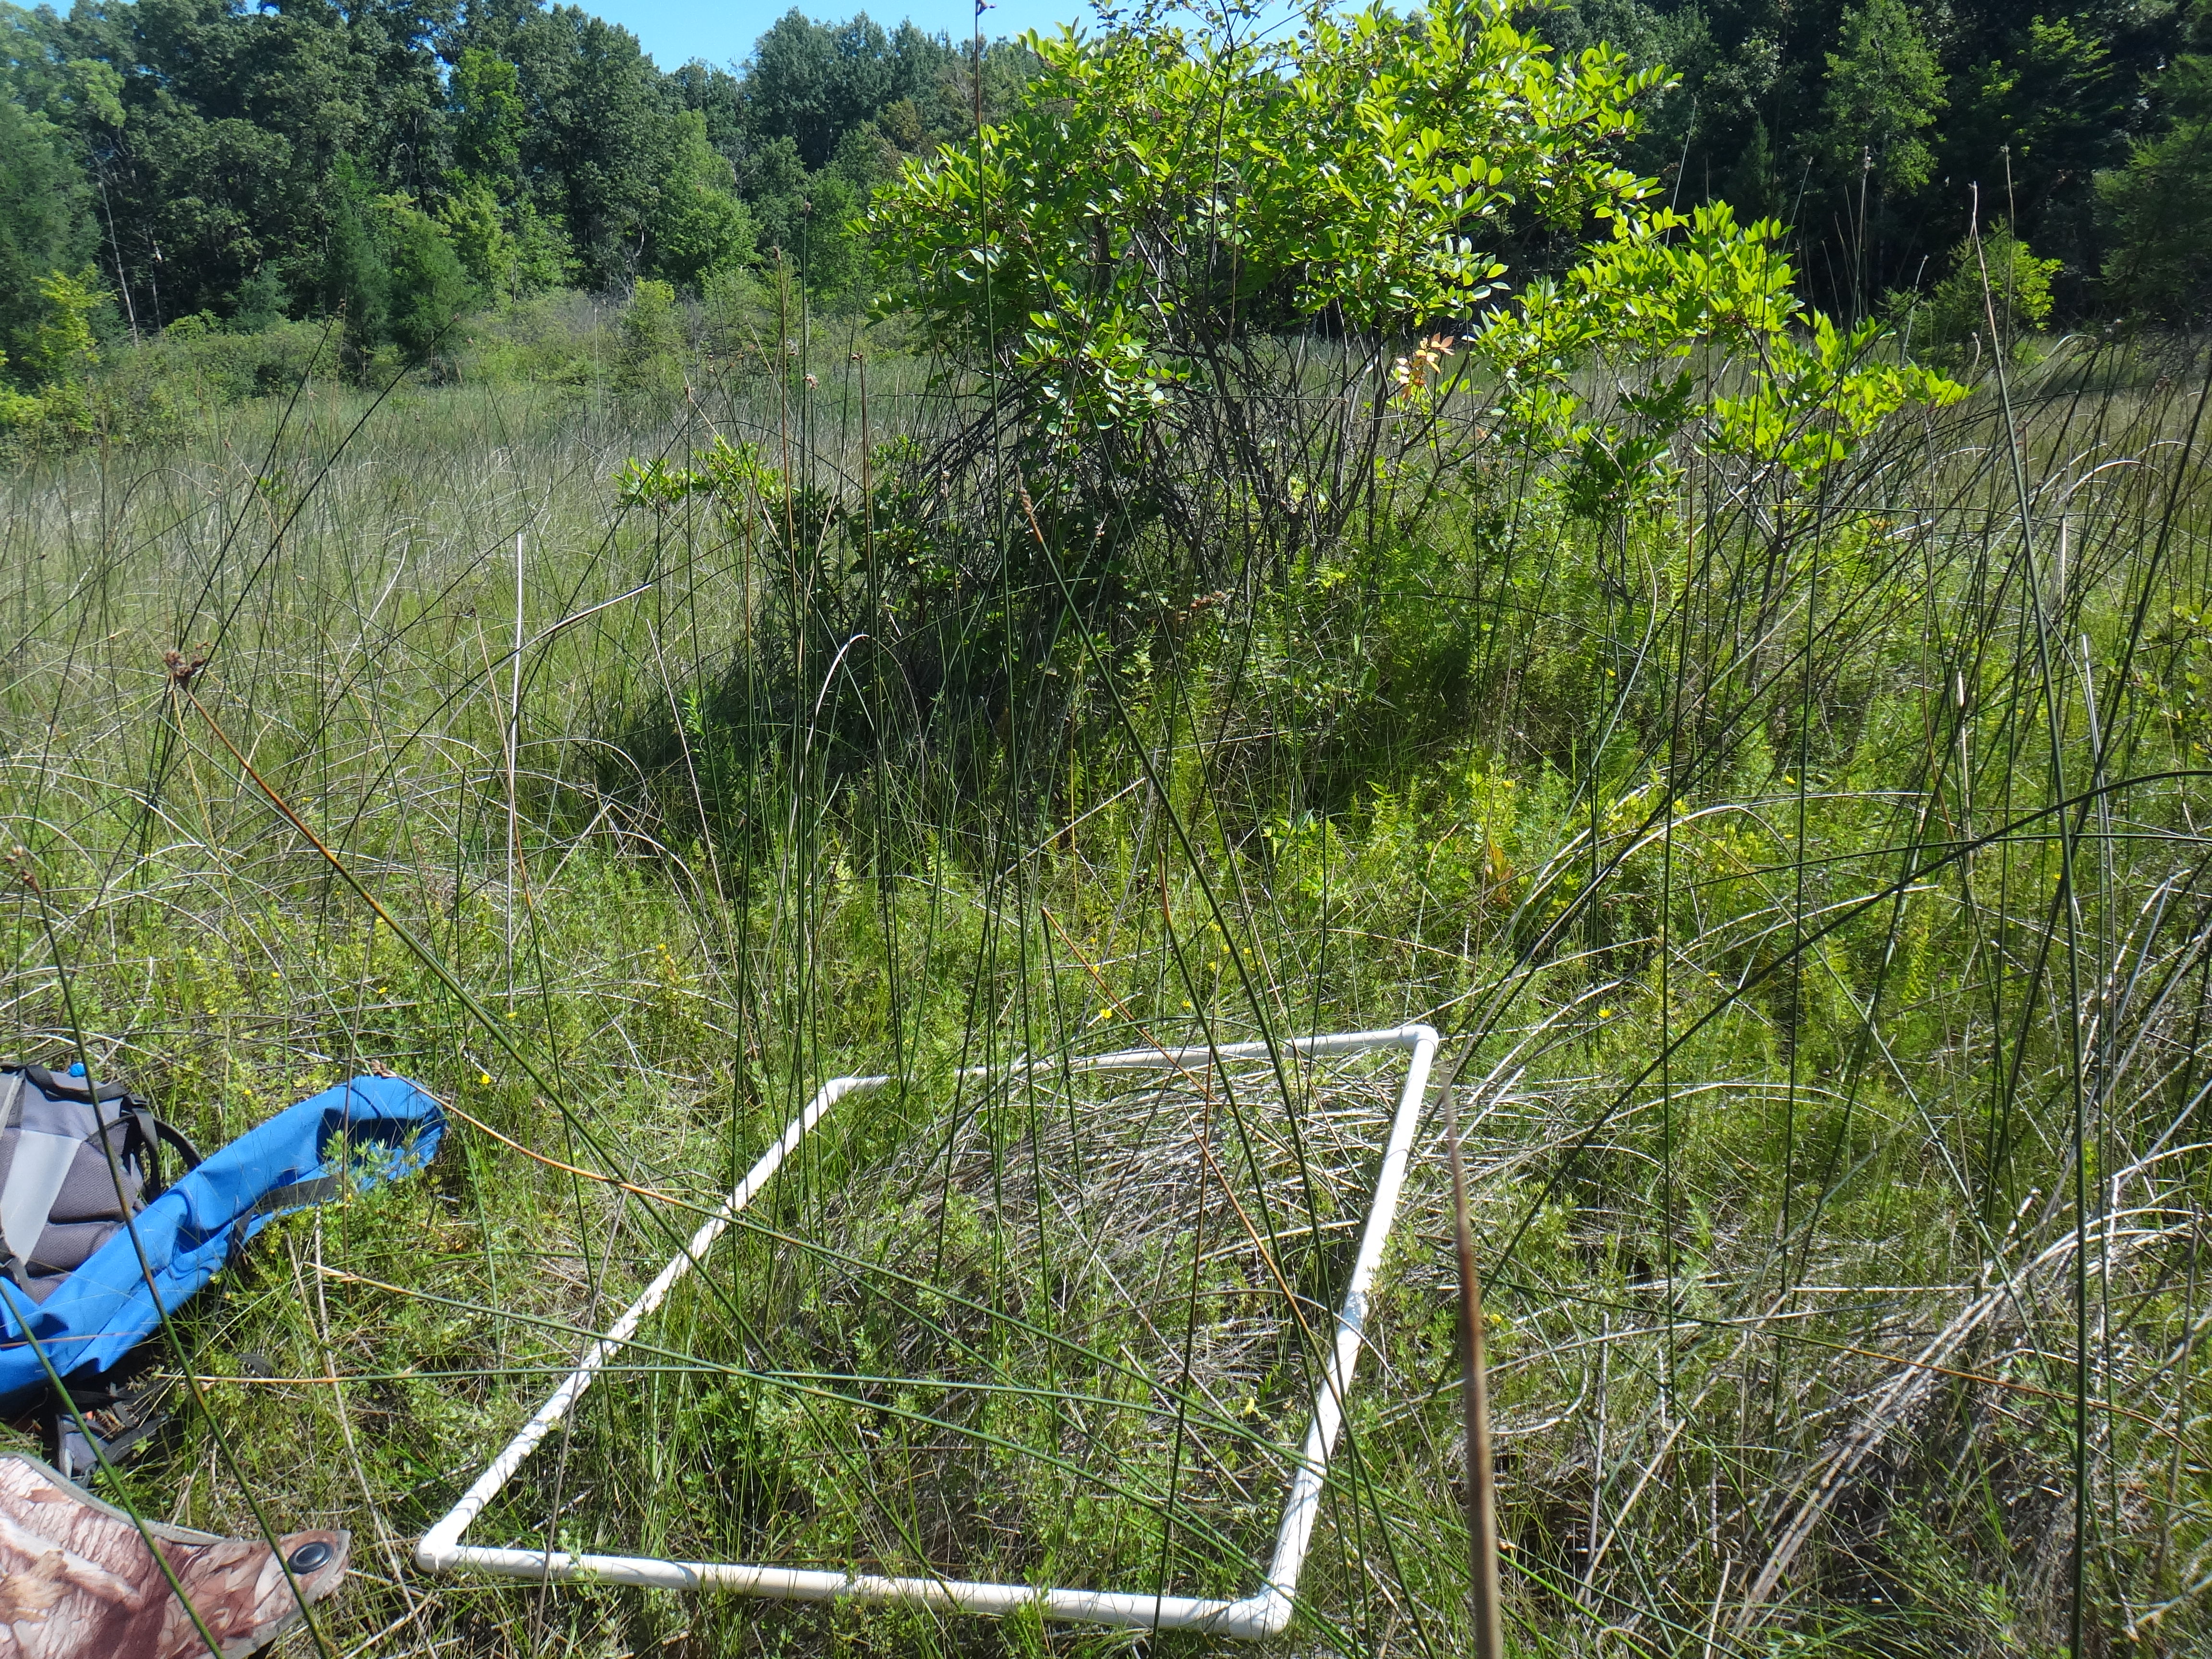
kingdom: Plantae
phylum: Tracheophyta
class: Liliopsida
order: Poales
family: Cyperaceae
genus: Cladium
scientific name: Cladium mariscoides
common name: Smooth sawgrass
